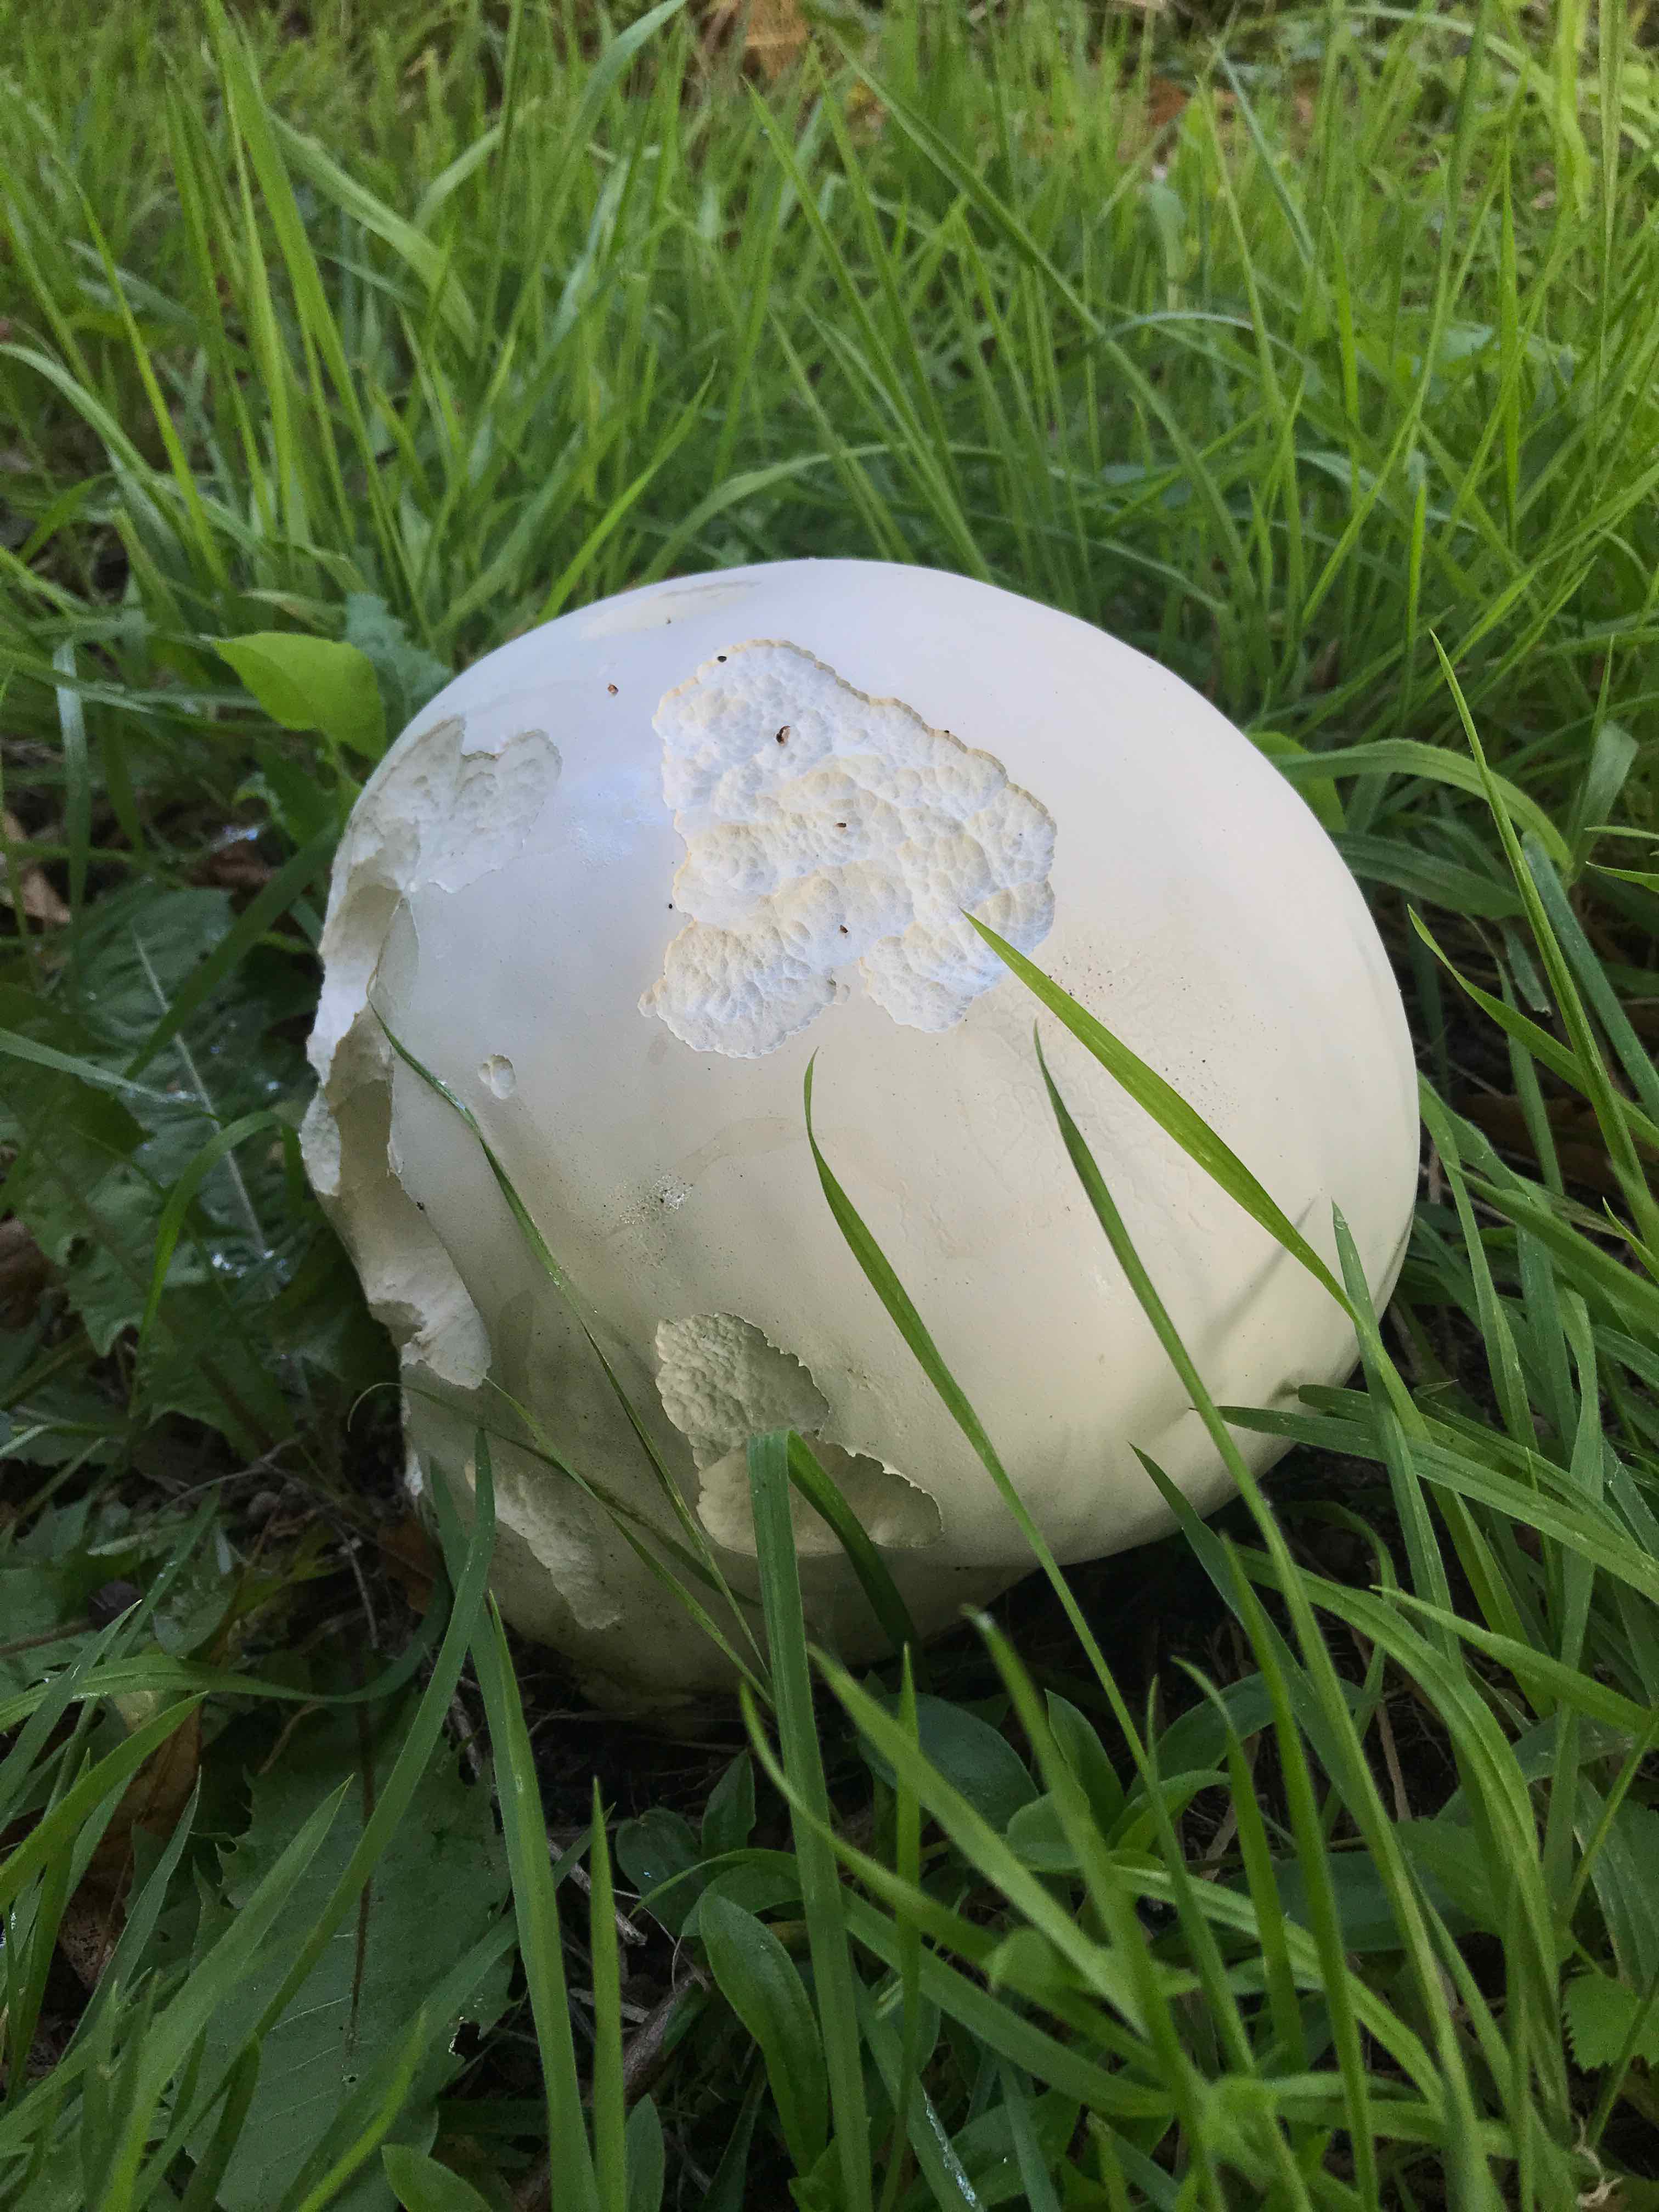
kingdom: Fungi
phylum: Basidiomycota
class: Agaricomycetes
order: Agaricales
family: Lycoperdaceae
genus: Calvatia
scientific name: Calvatia gigantea
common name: kæmpestøvbold
